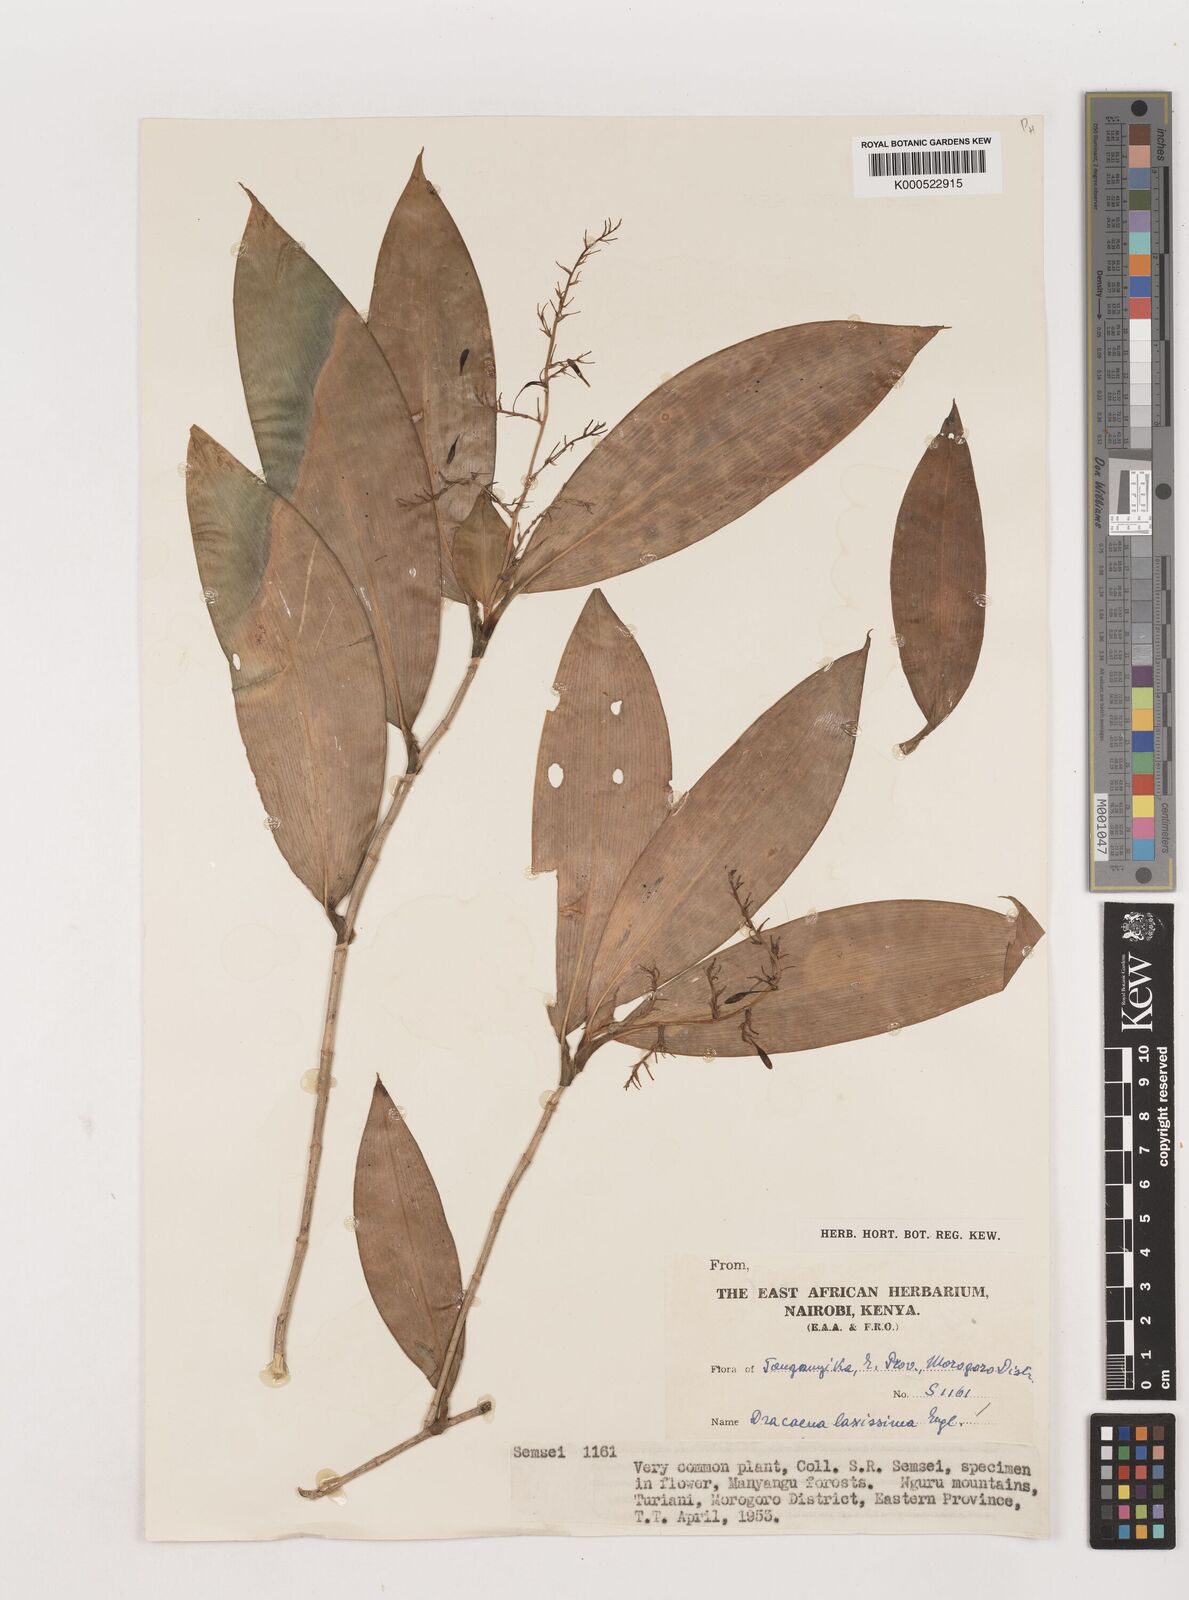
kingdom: Plantae
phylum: Tracheophyta
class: Liliopsida
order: Asparagales
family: Asparagaceae
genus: Dracaena
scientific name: Dracaena laxissima
